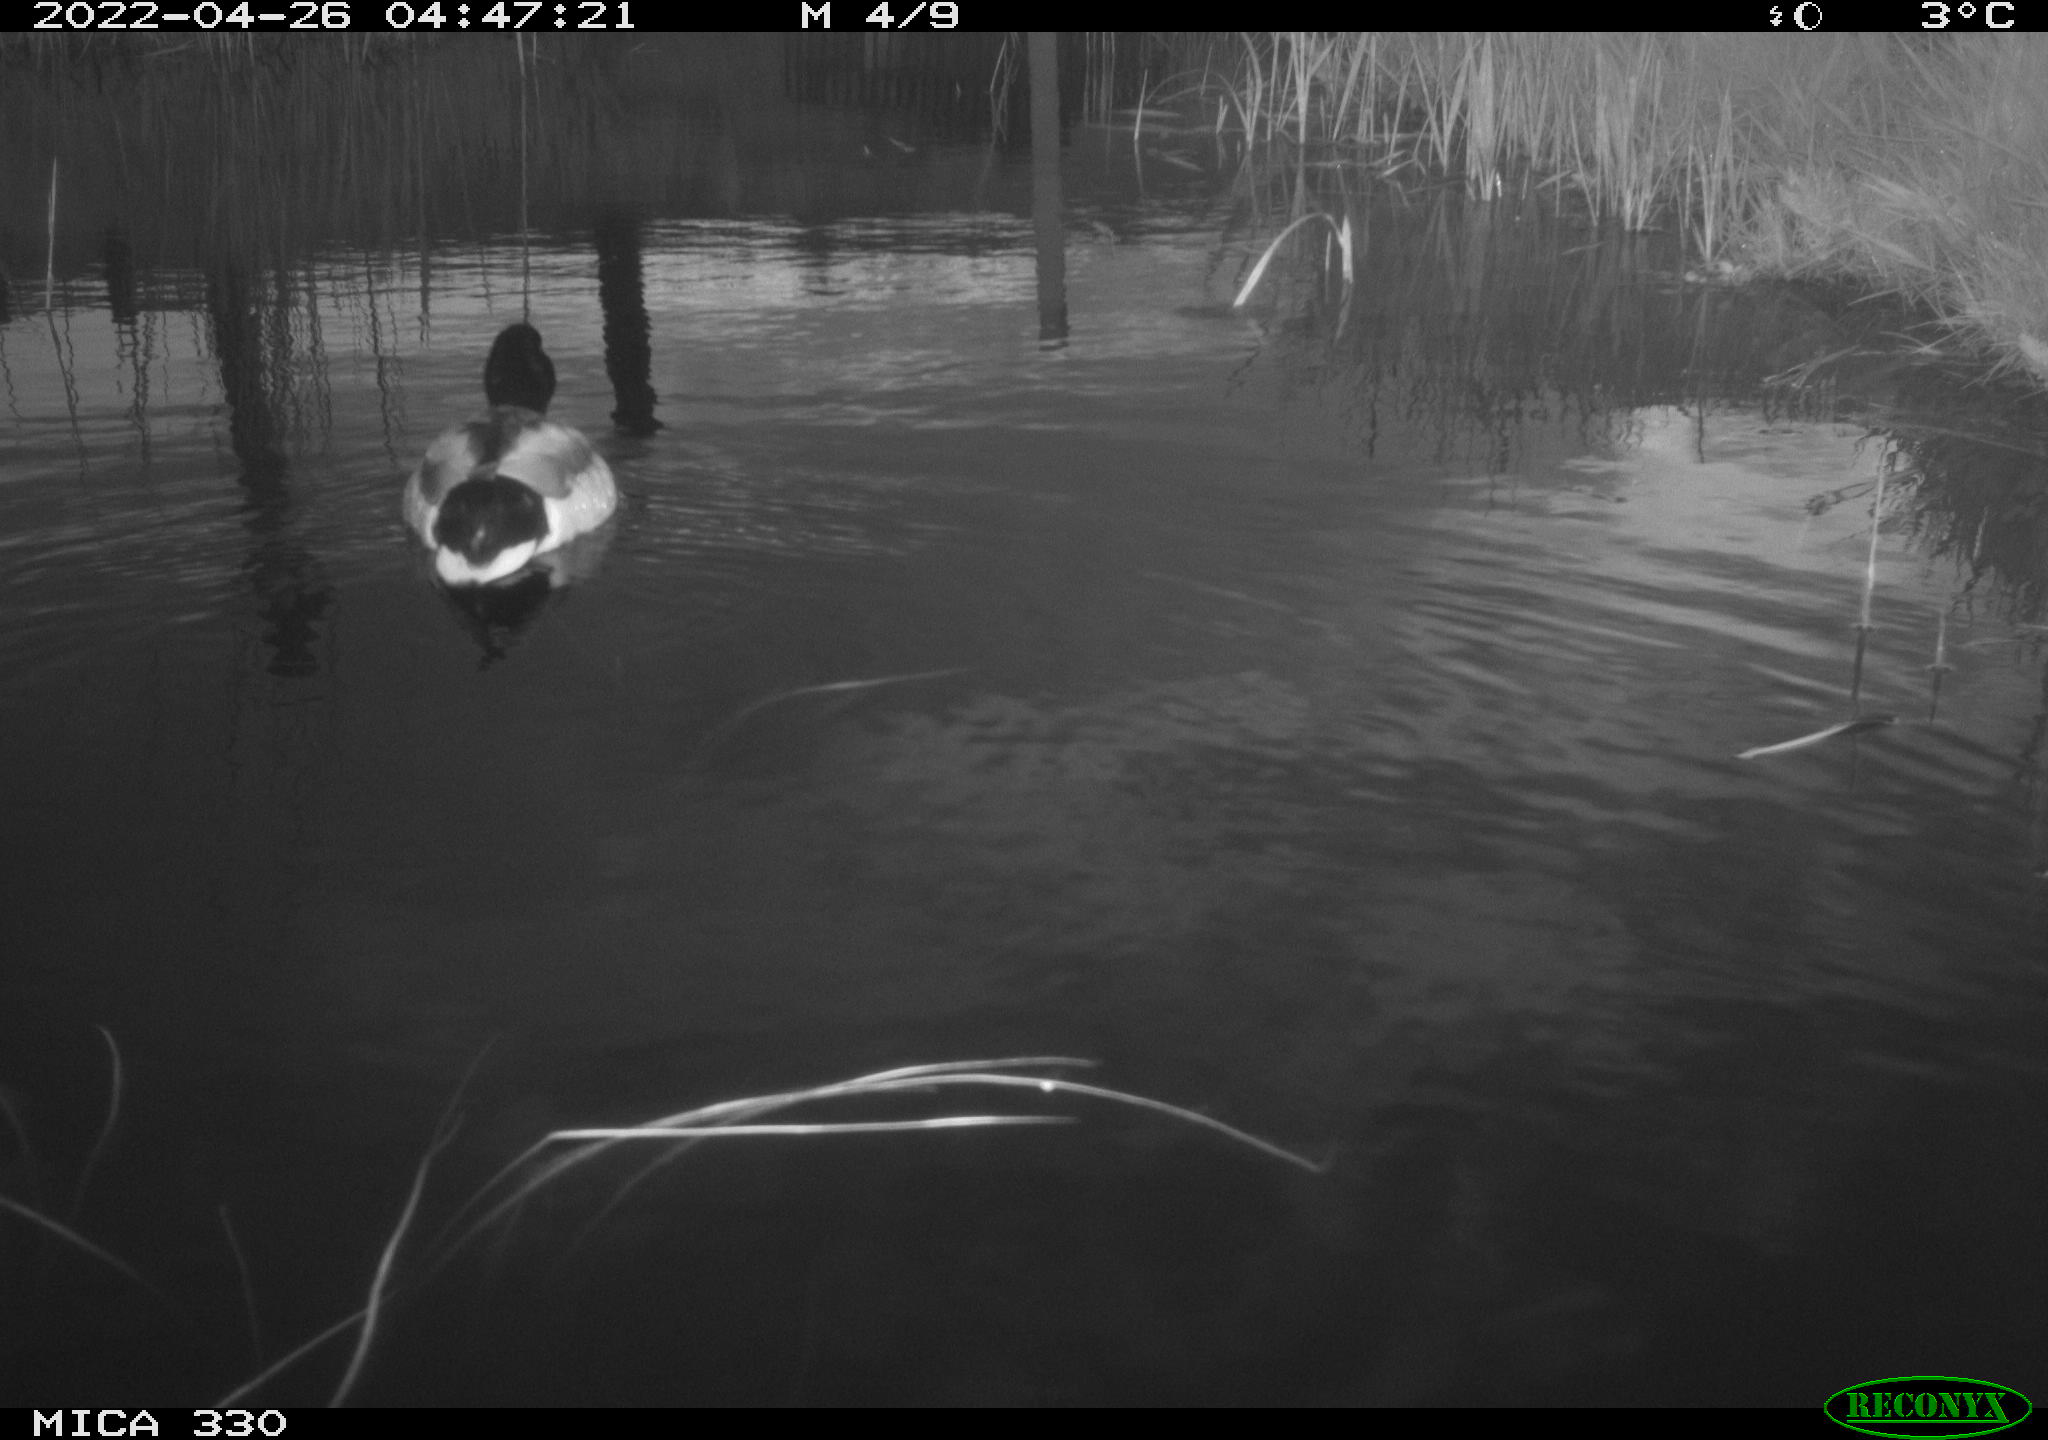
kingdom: Animalia
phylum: Chordata
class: Aves
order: Anseriformes
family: Anatidae
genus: Anas
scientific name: Anas platyrhynchos
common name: Mallard
